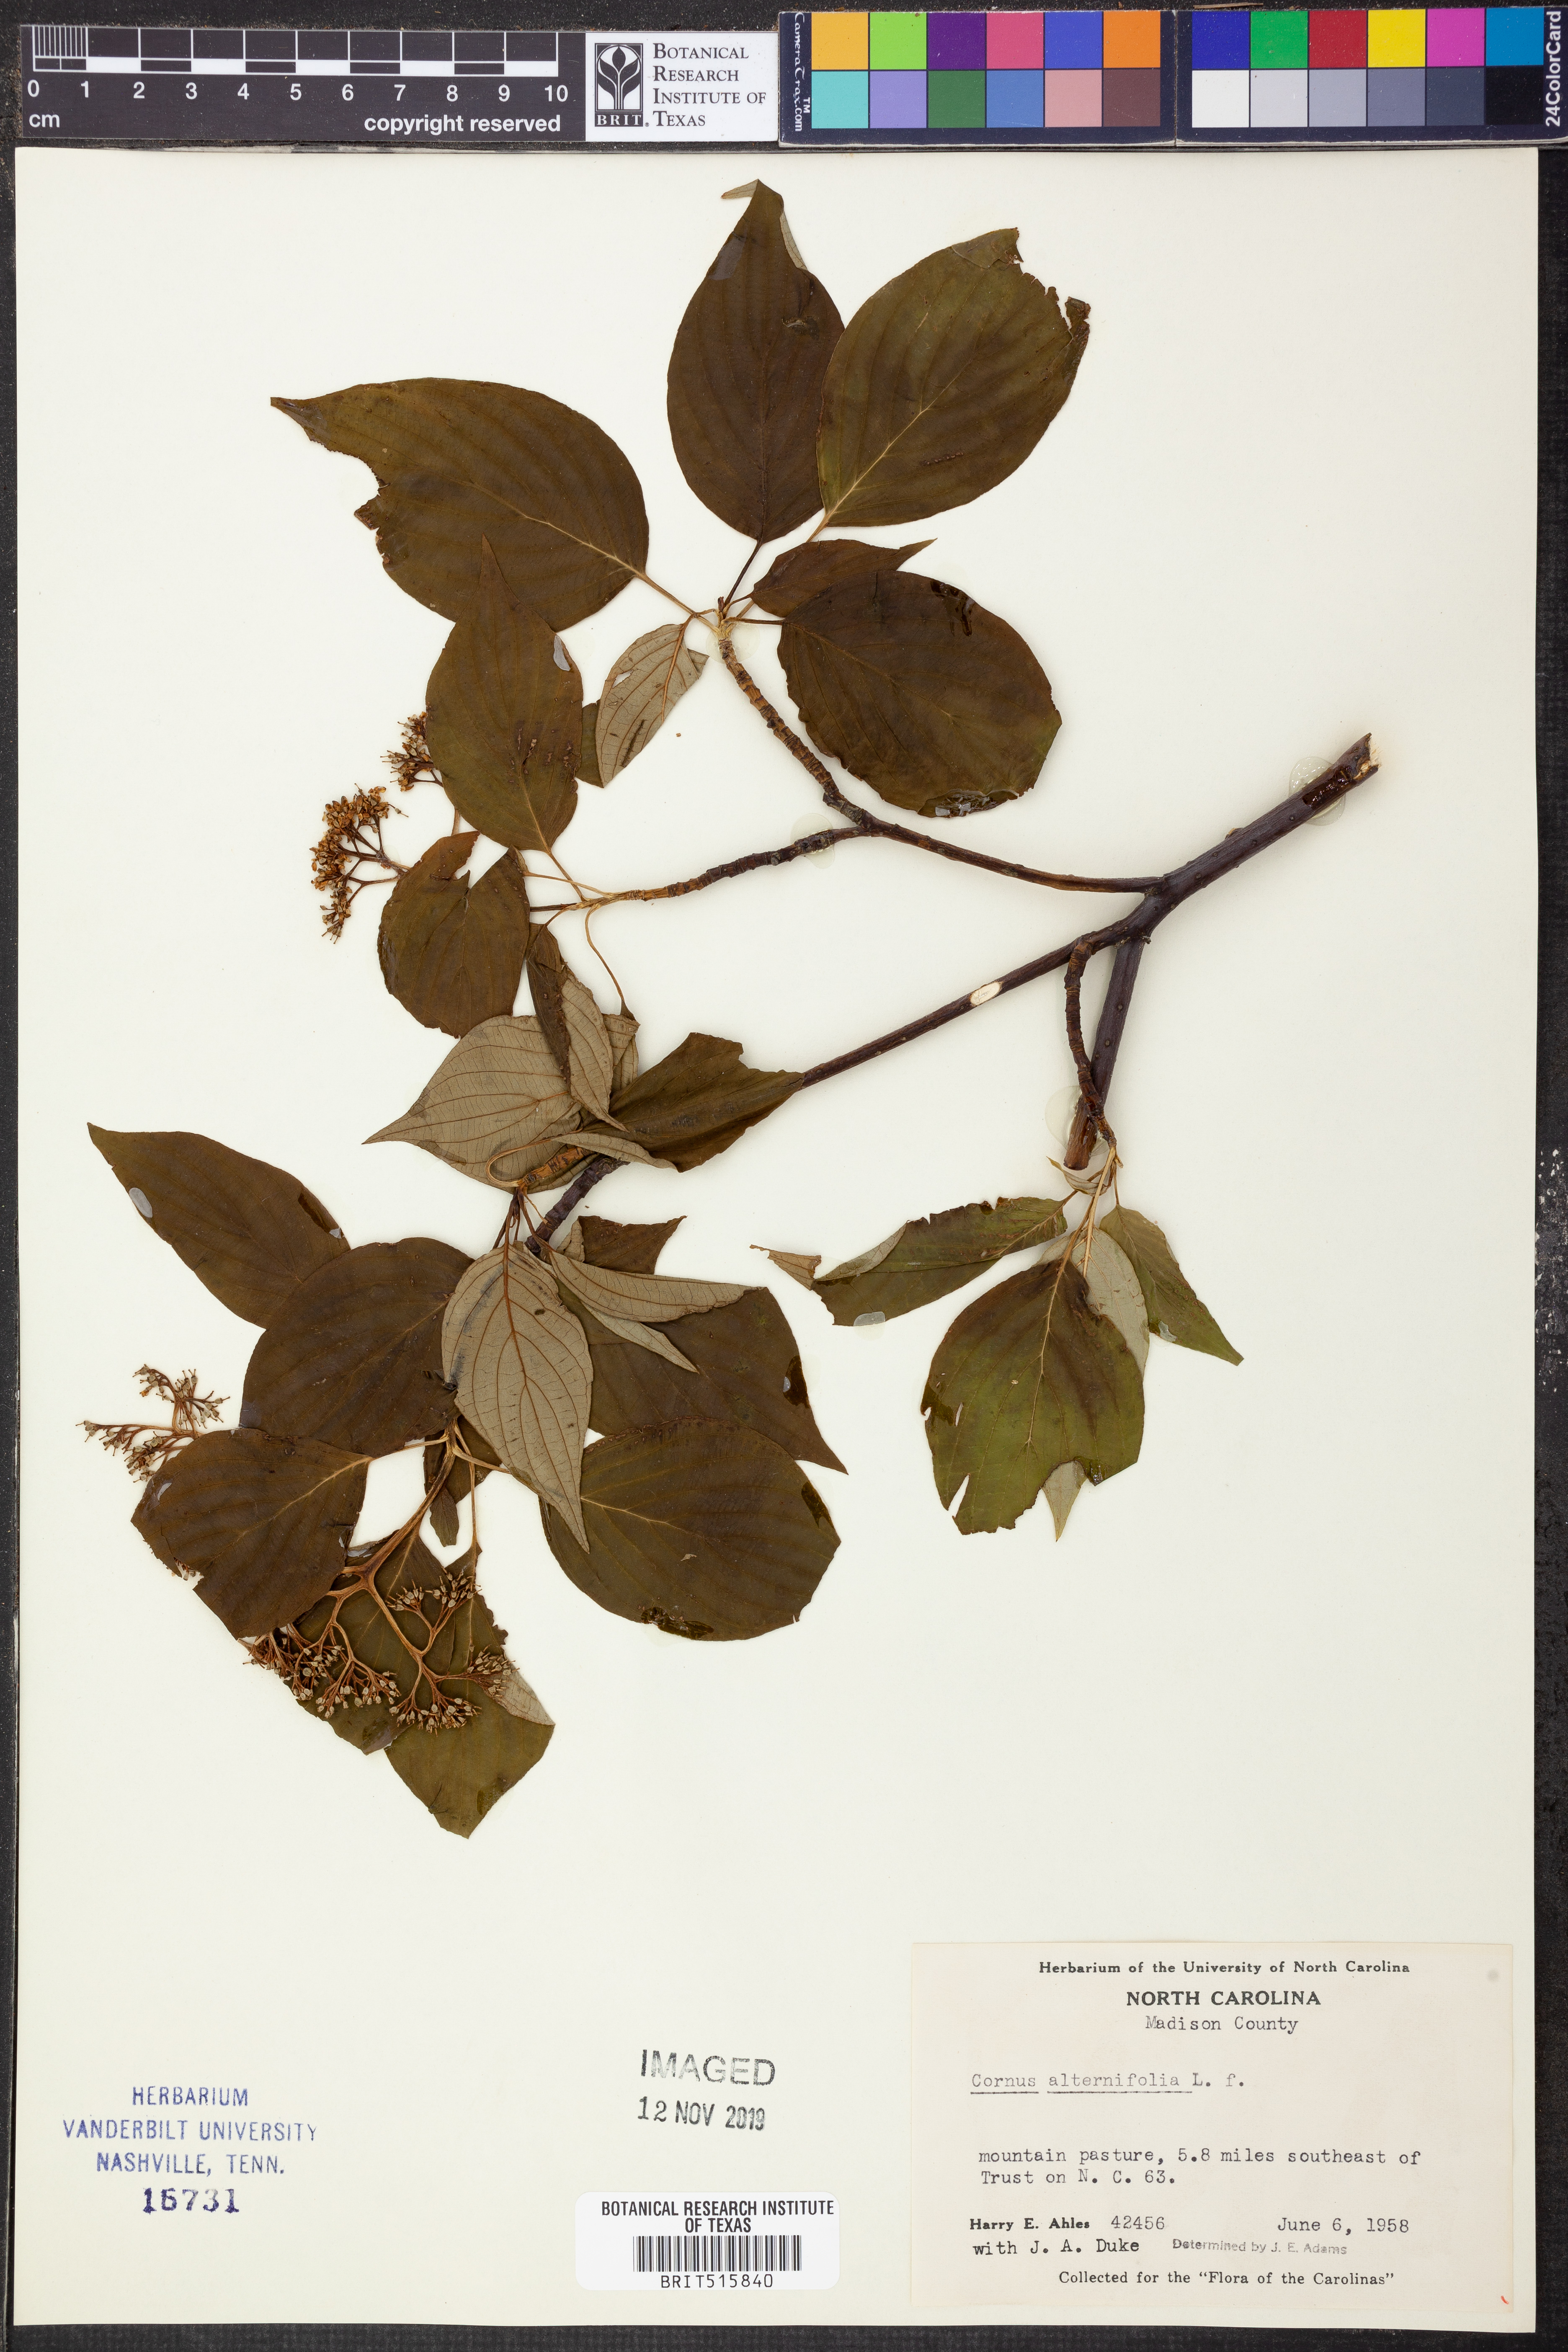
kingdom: Plantae
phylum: Tracheophyta
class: Magnoliopsida
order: Cornales
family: Cornaceae
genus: Cornus
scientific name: Cornus alternifolia
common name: Pagoda dogwood
